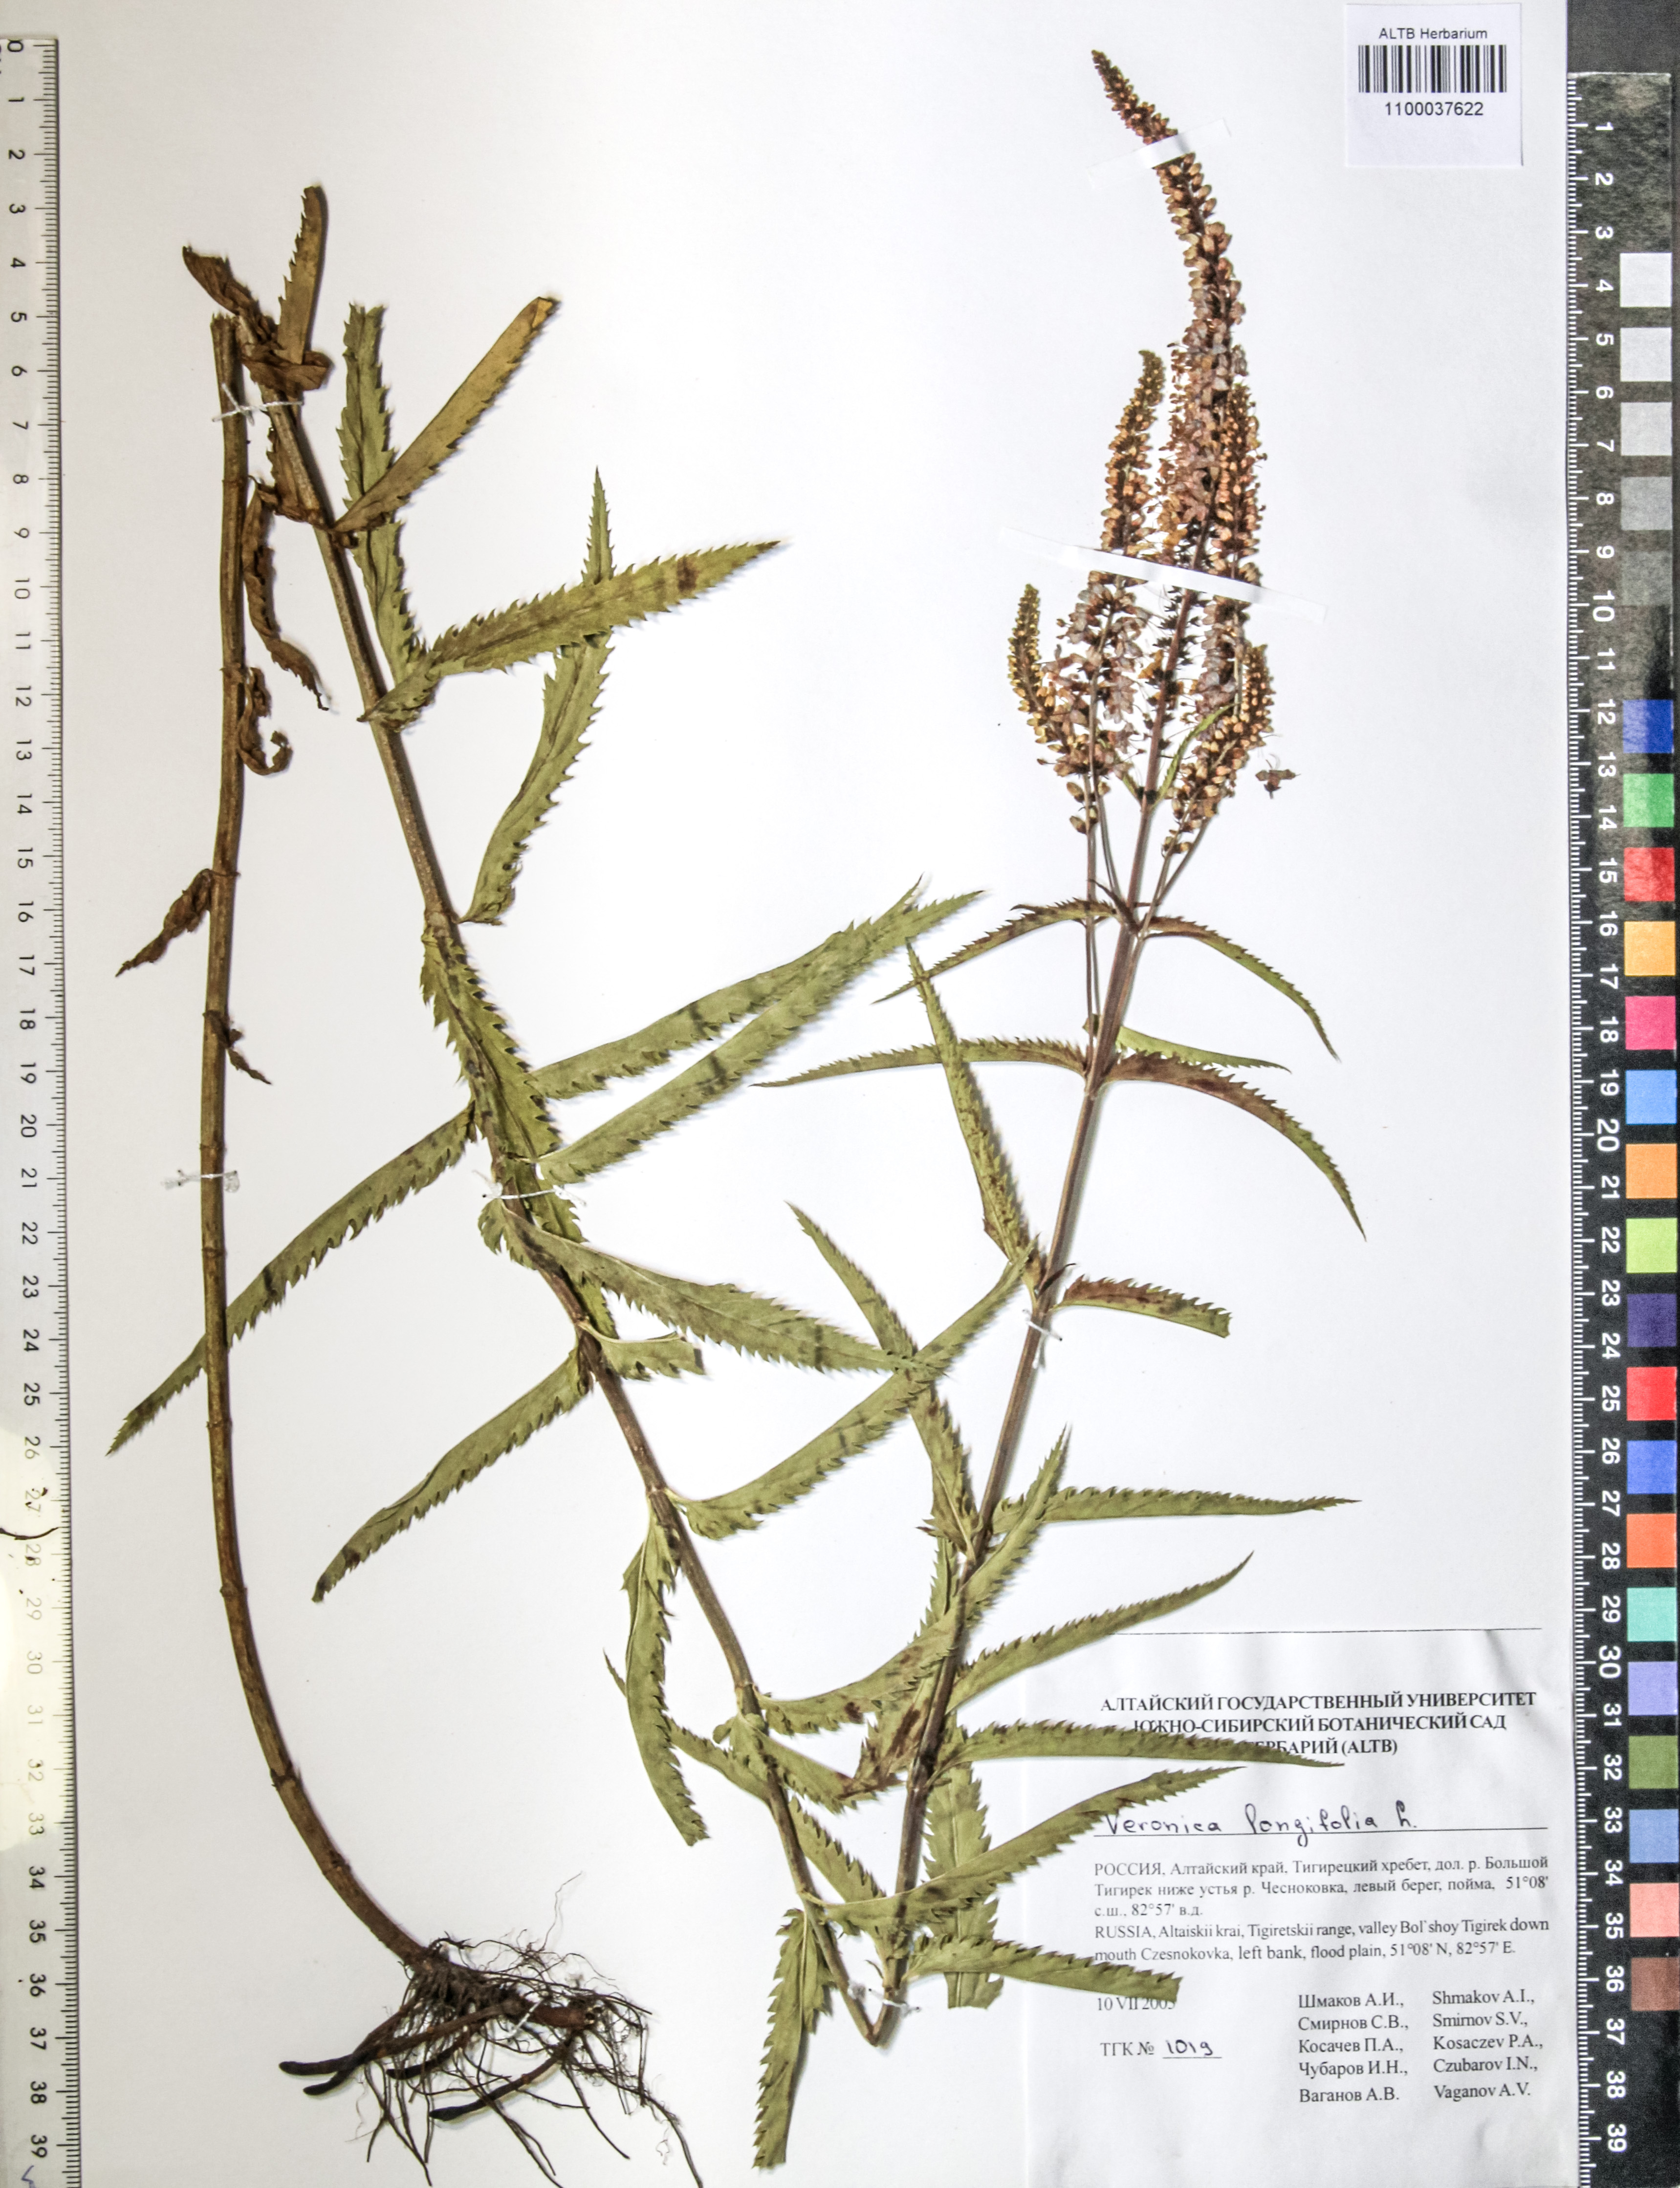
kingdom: Plantae
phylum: Tracheophyta
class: Magnoliopsida
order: Lamiales
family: Plantaginaceae
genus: Veronica
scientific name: Veronica longifolia
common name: Garden speedwell
